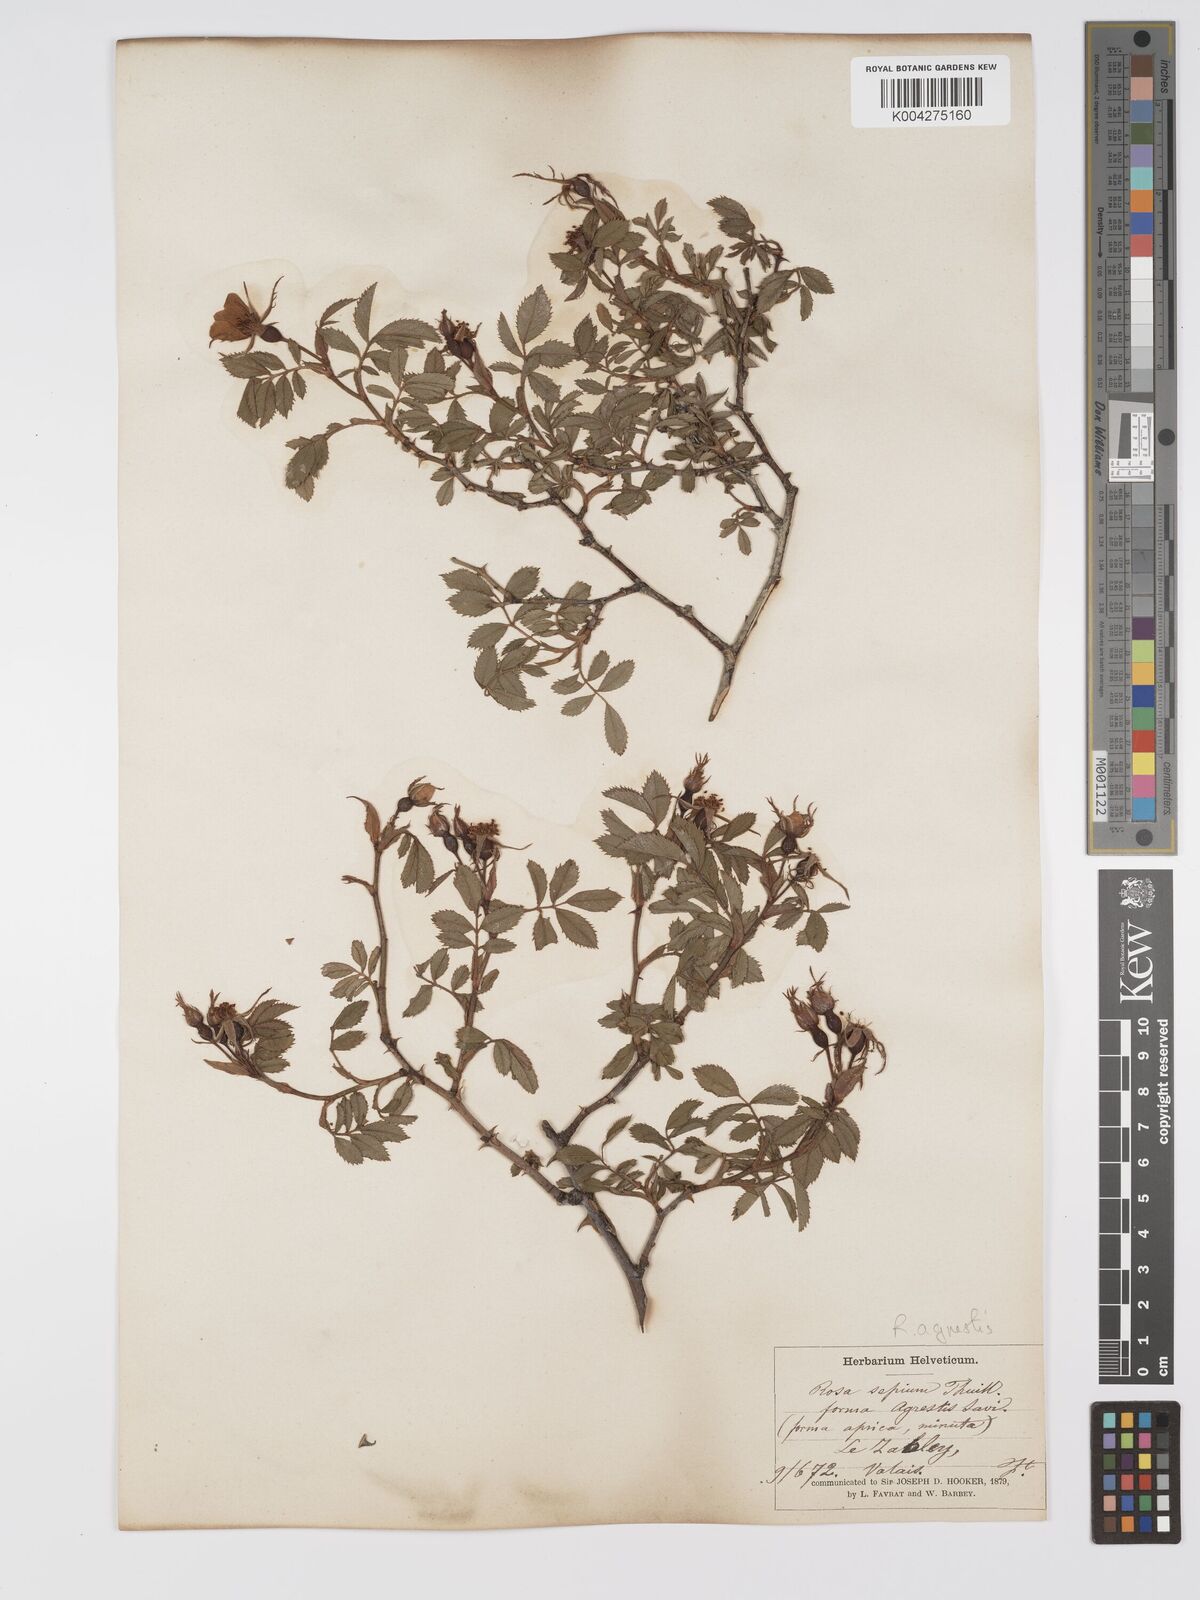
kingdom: Plantae
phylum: Tracheophyta
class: Magnoliopsida
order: Rosales
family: Rosaceae
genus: Rosa
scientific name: Rosa
